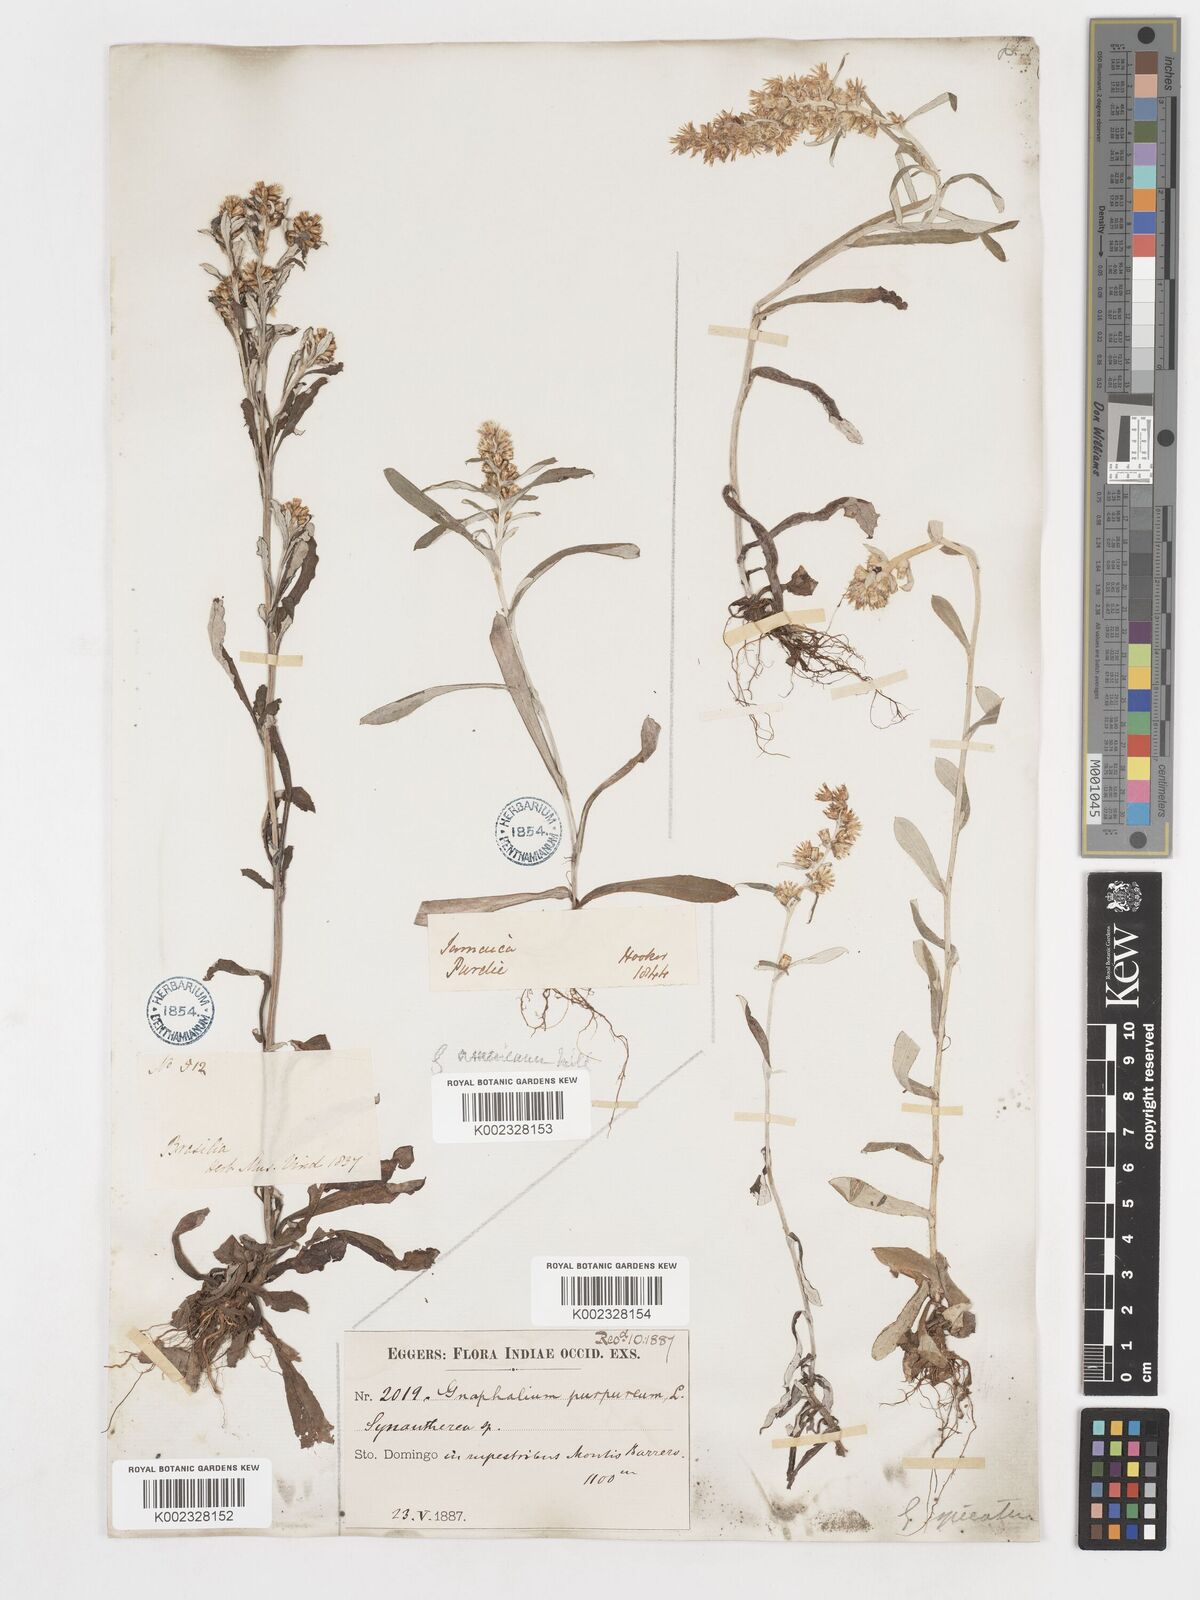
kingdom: Plantae
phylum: Tracheophyta
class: Magnoliopsida
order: Asterales
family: Asteraceae
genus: Gamochaeta
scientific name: Gamochaeta purpurea
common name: Purple cudweed
